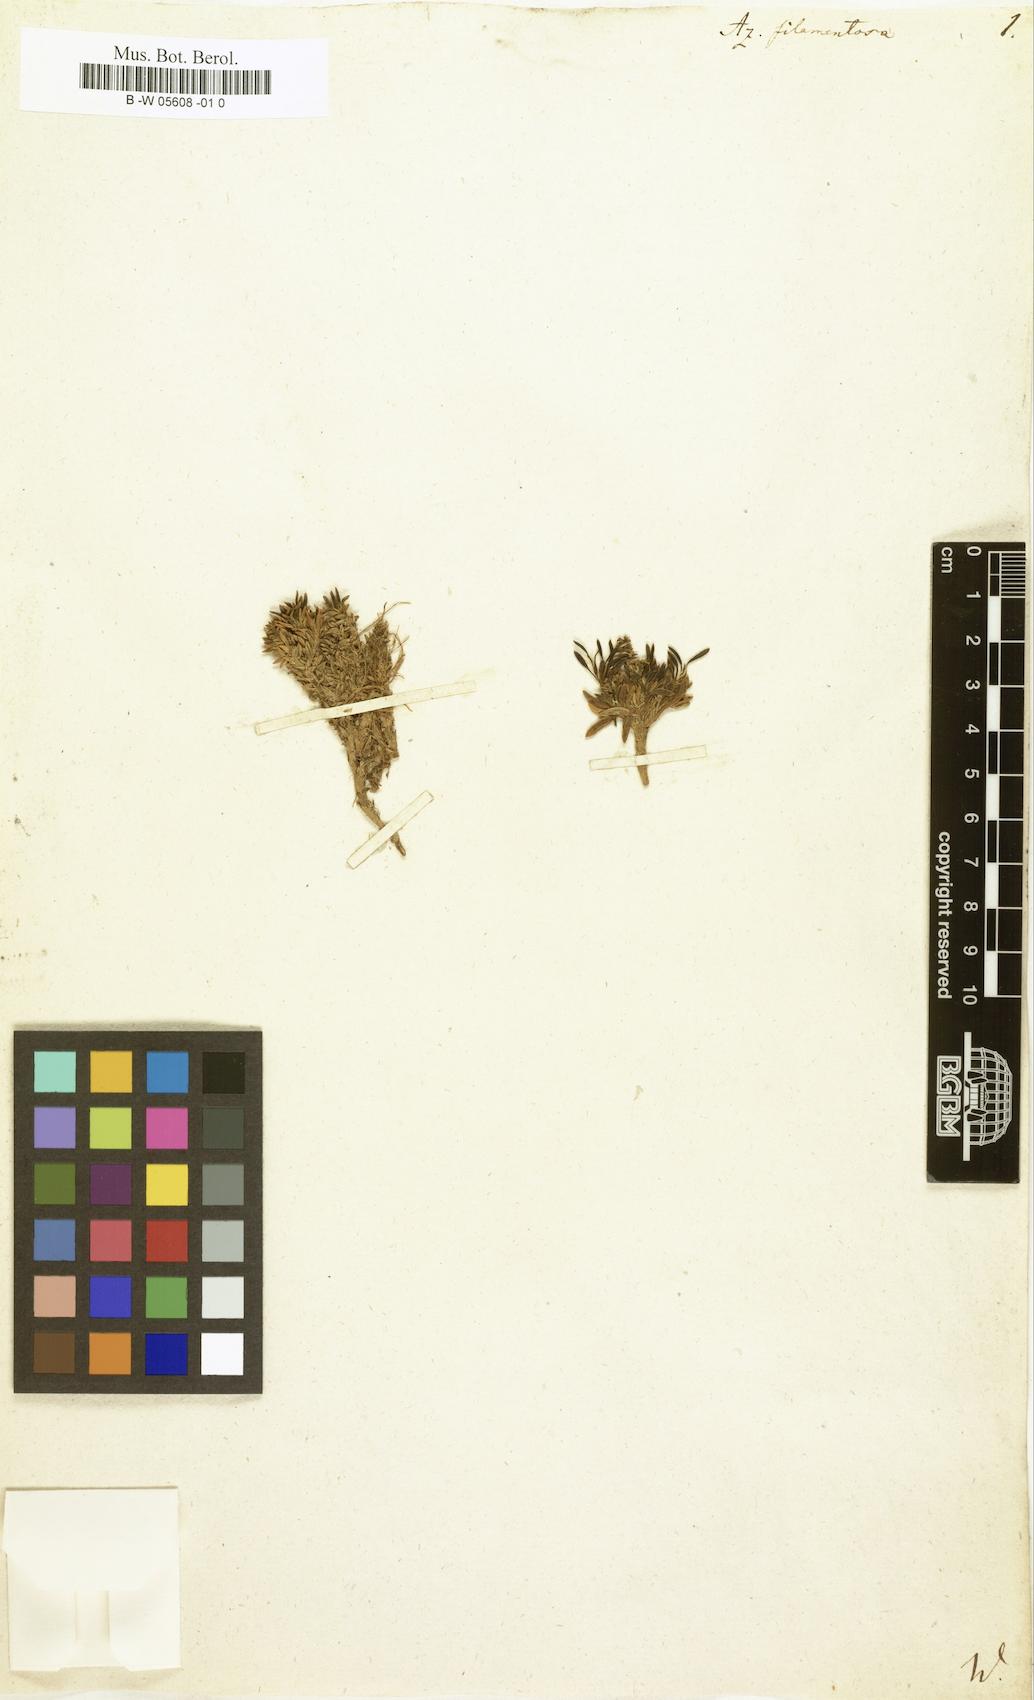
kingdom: Plantae
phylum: Tracheophyta
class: Magnoliopsida
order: Apiales
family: Apiaceae
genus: Azorella
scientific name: Azorella filamentosa
